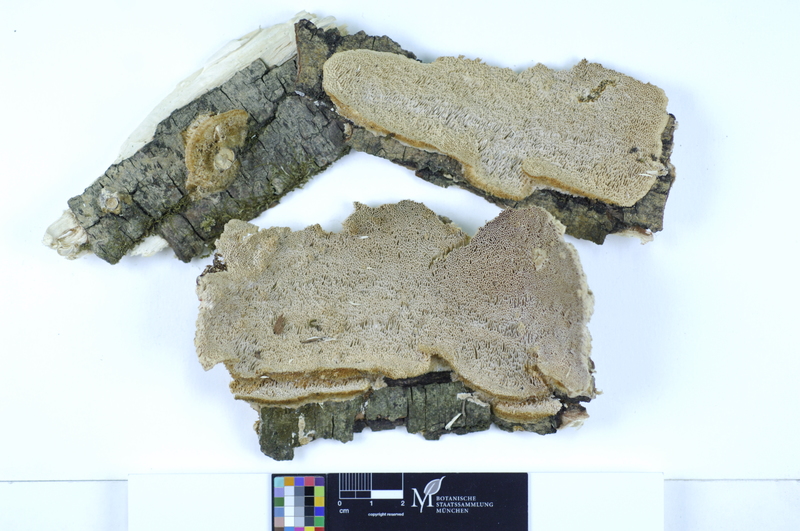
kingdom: Plantae
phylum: Tracheophyta
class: Magnoliopsida
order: Malpighiales
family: Salicaceae
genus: Salix
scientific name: Salix
